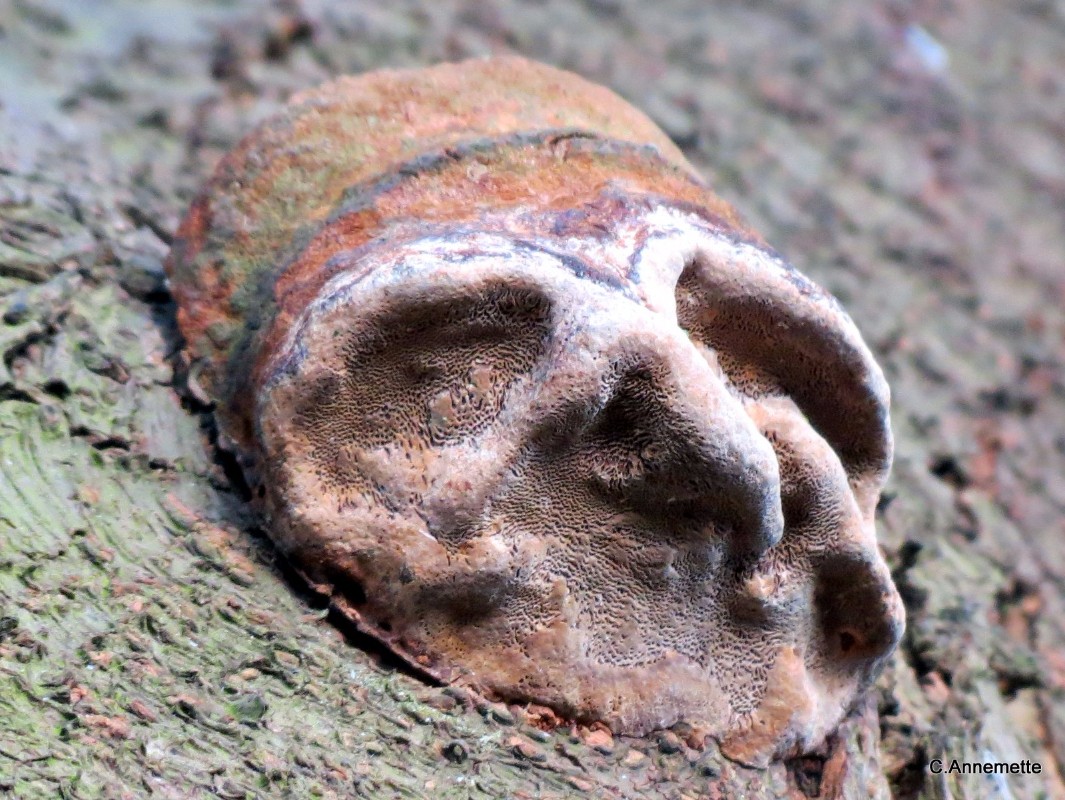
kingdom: Fungi
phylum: Basidiomycota
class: Agaricomycetes
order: Hymenochaetales
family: Hymenochaetaceae
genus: Phellinus
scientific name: Phellinus pomaceus
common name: blomme-ildporesvamp
